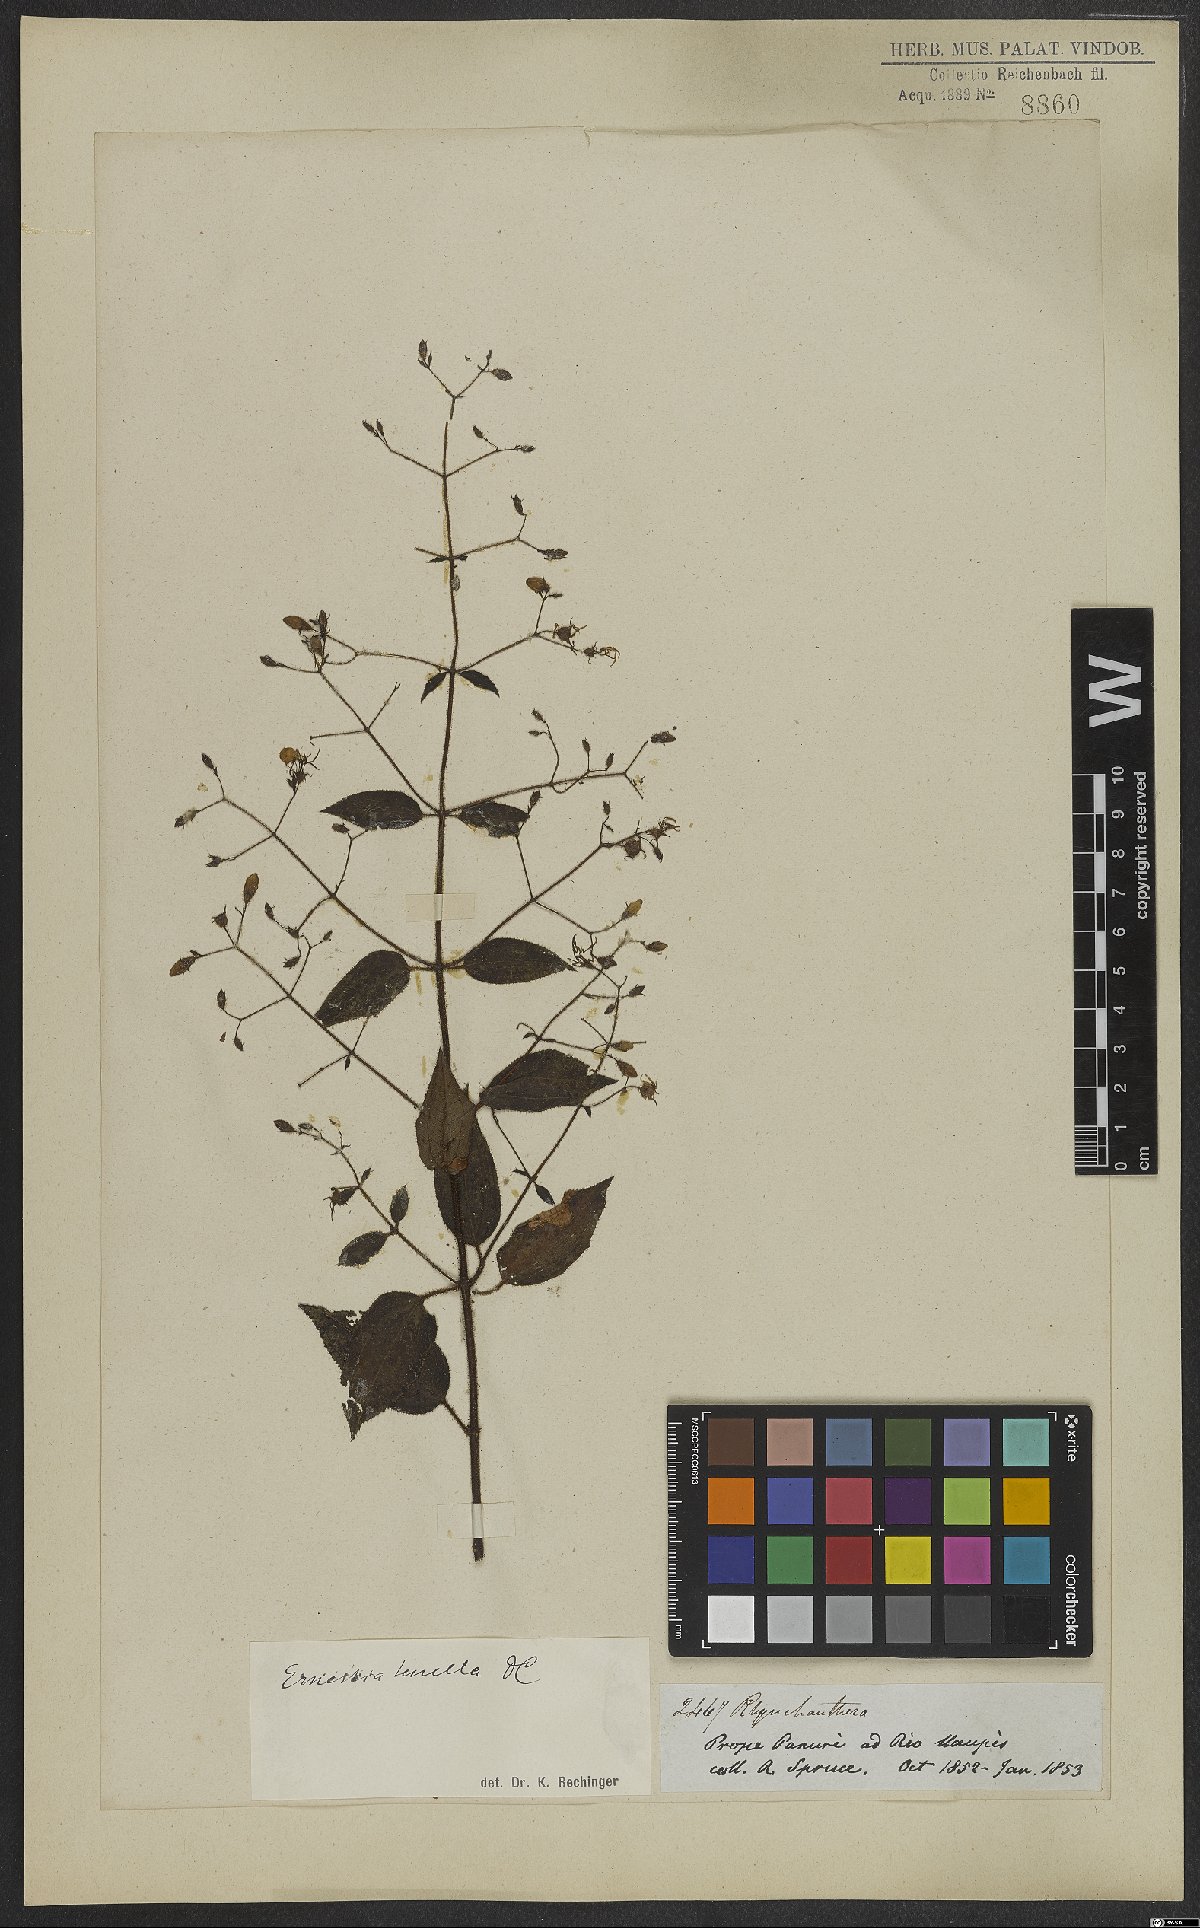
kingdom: Plantae
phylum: Tracheophyta
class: Magnoliopsida
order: Myrtales
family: Melastomataceae
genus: Ernestia
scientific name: Ernestia tenella
